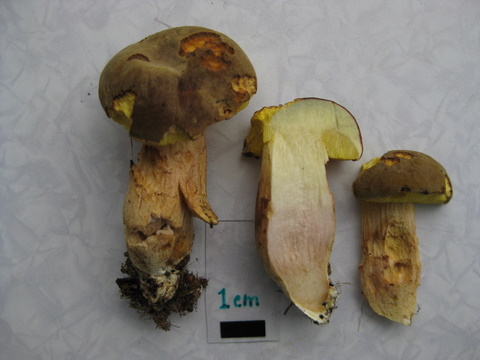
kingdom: Fungi
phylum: Basidiomycota
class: Agaricomycetes
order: Boletales
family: Boletaceae
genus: Xerocomus
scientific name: Xerocomus subtomentosus
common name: filtet rørhat
